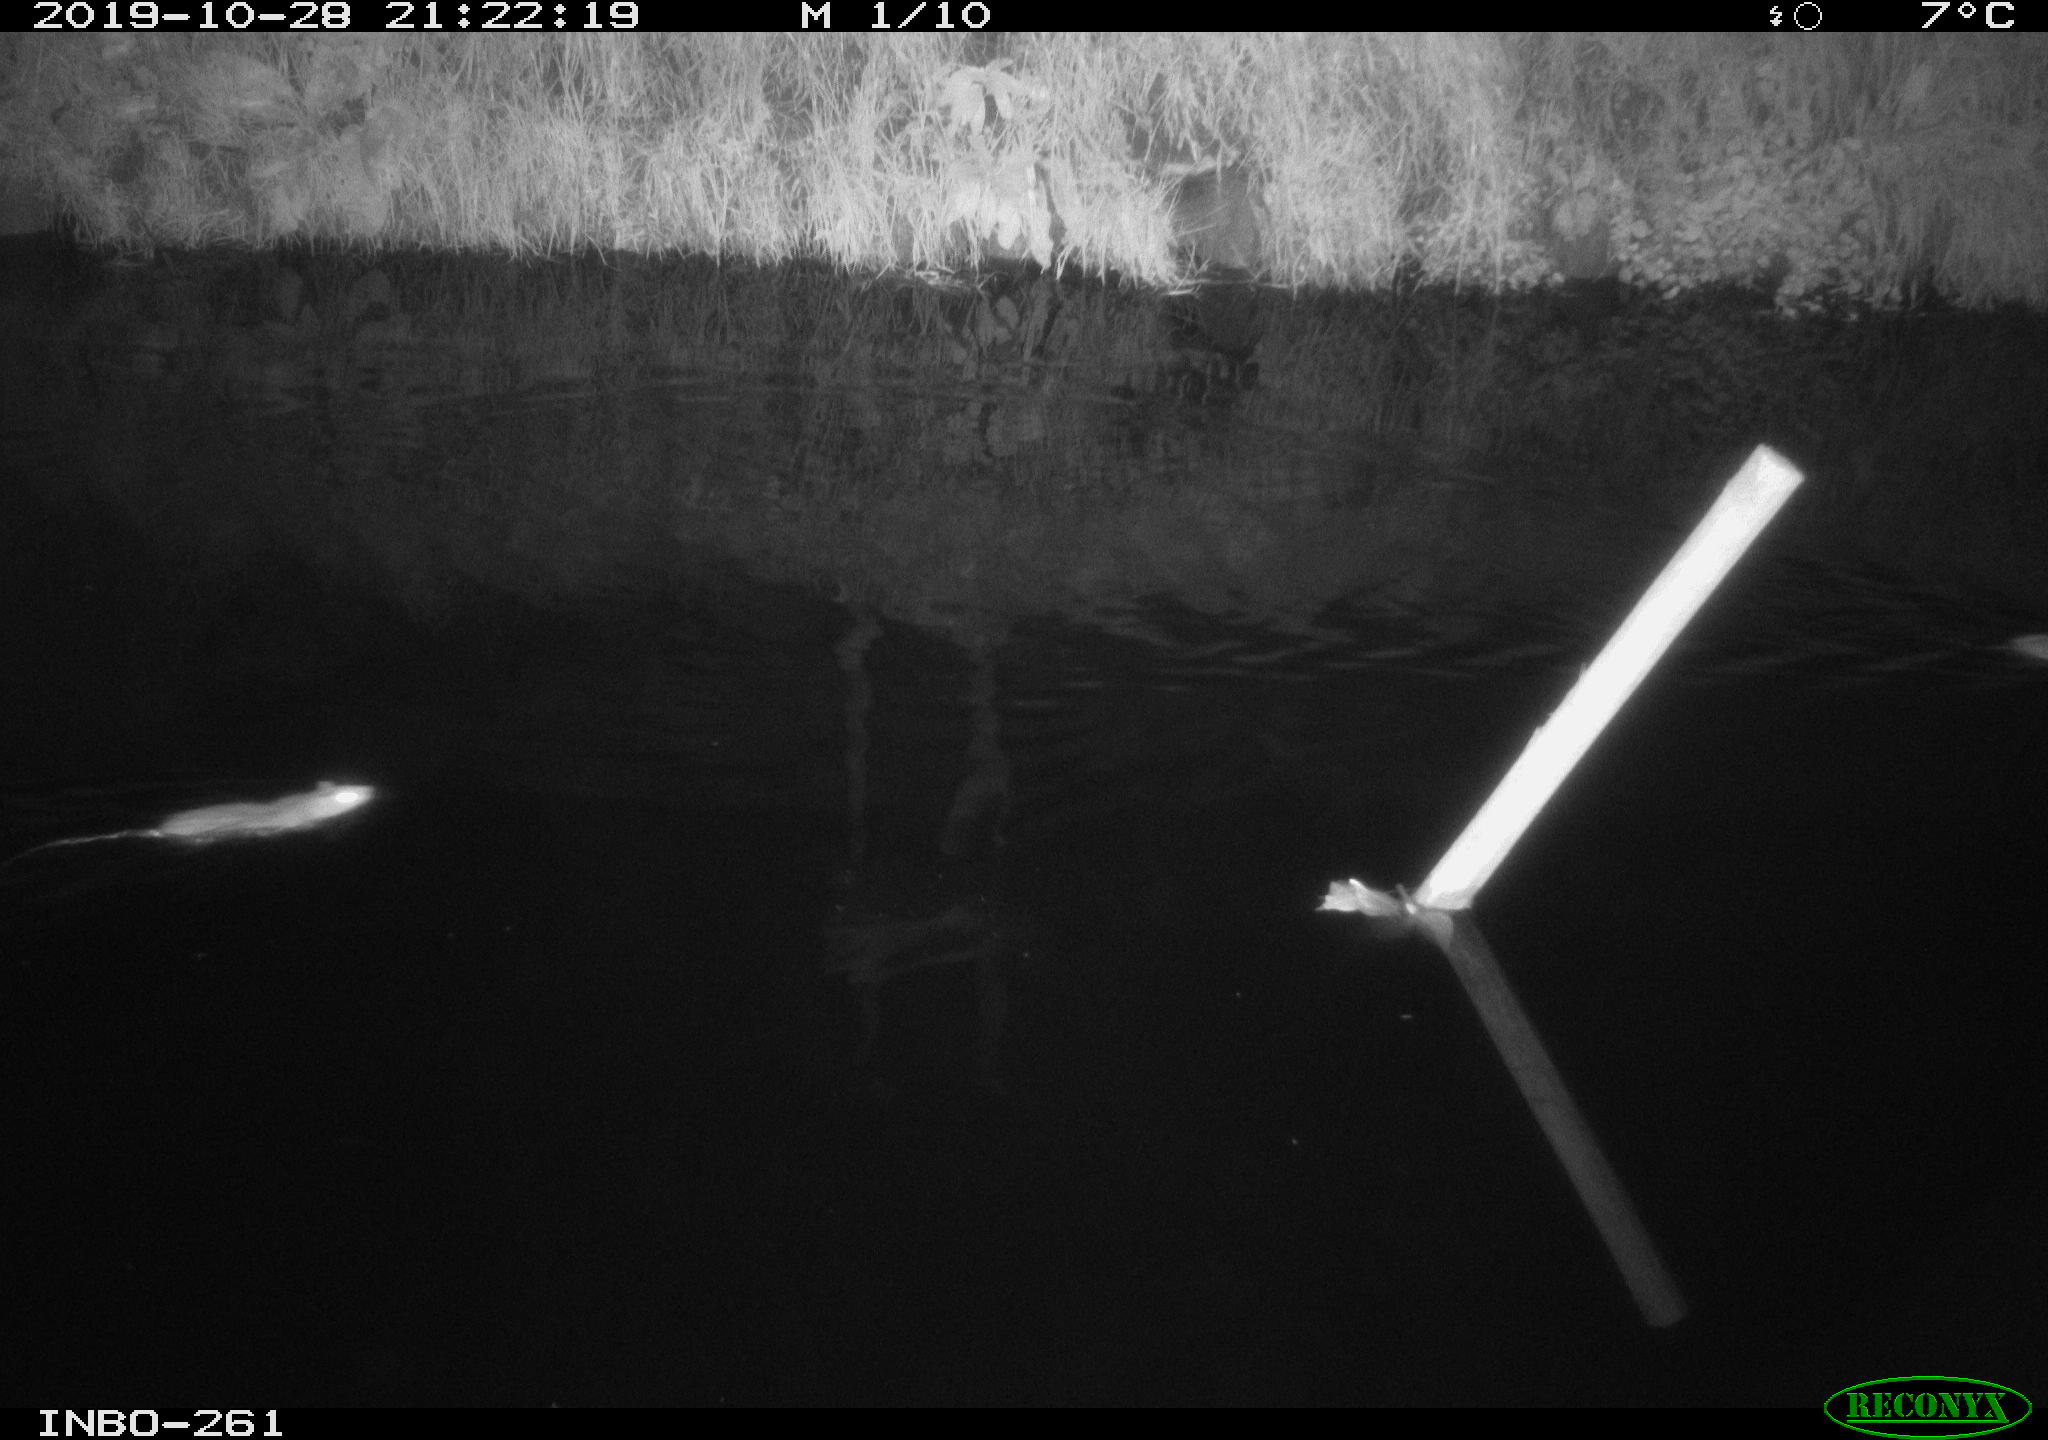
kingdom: Animalia
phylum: Chordata
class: Mammalia
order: Rodentia
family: Muridae
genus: Rattus
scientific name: Rattus norvegicus
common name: Brown rat
